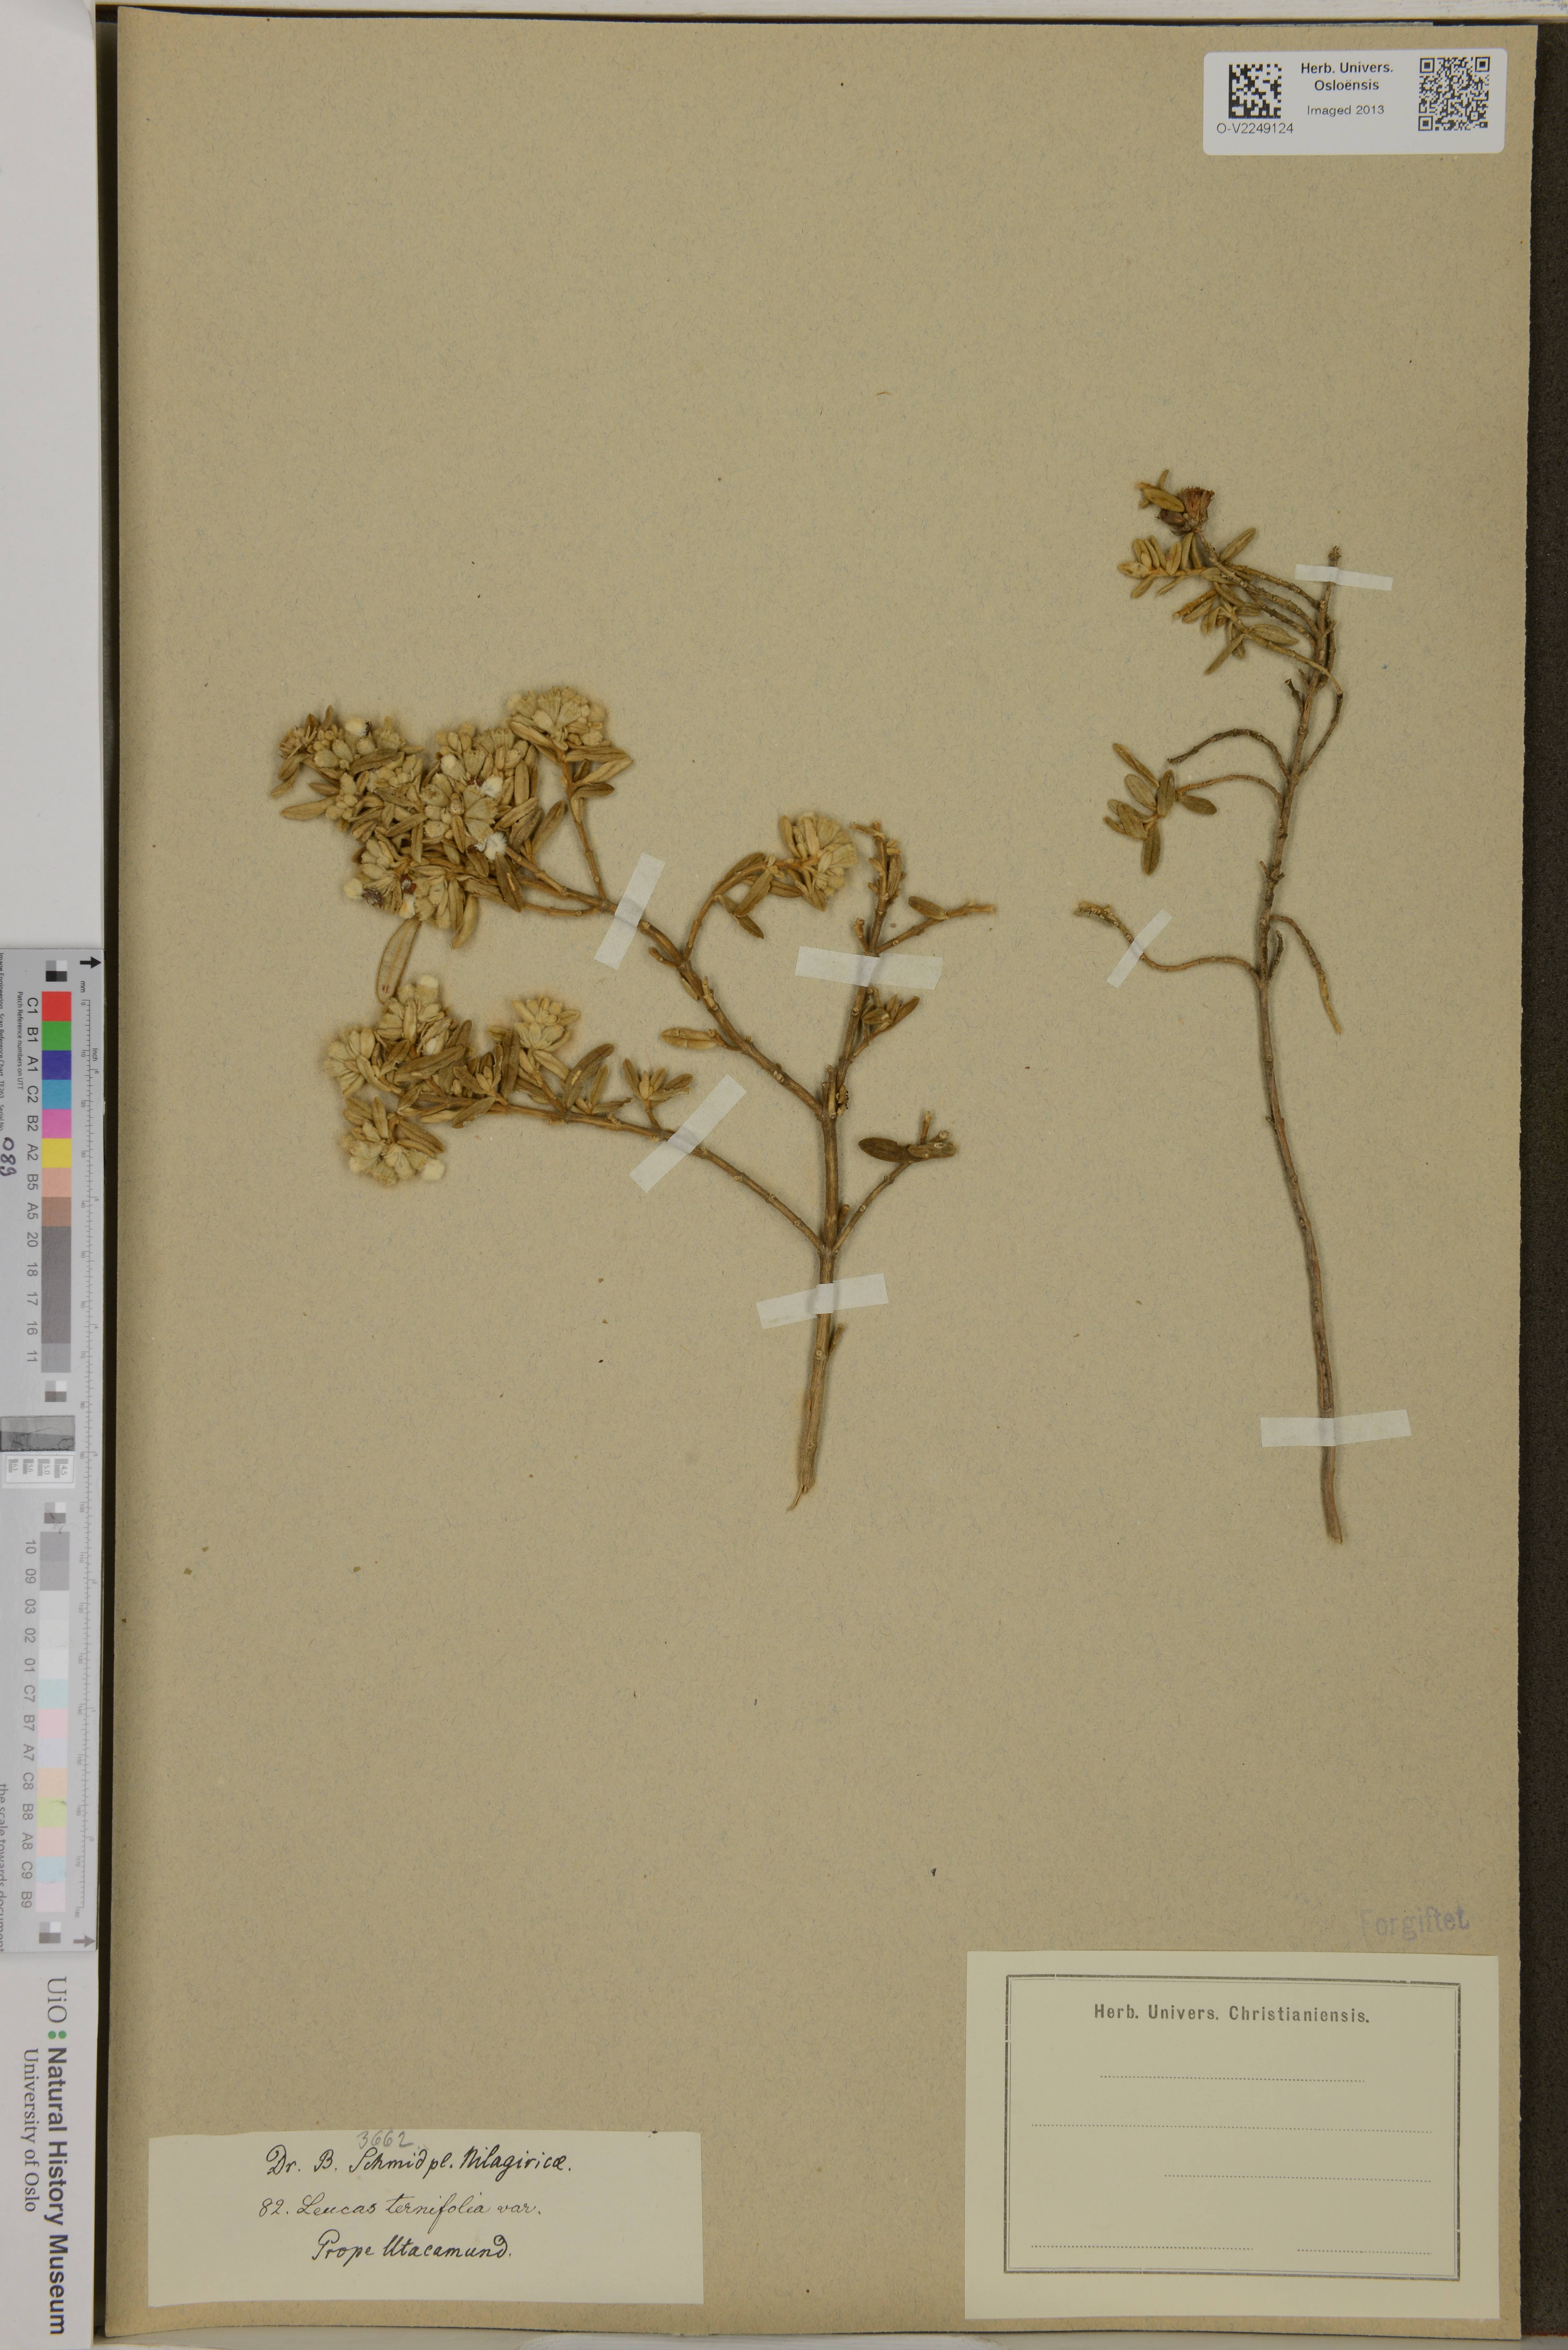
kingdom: Plantae
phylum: Tracheophyta
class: Magnoliopsida
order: Lamiales
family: Lamiaceae
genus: Leucas
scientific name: Leucas helianthemifolia
